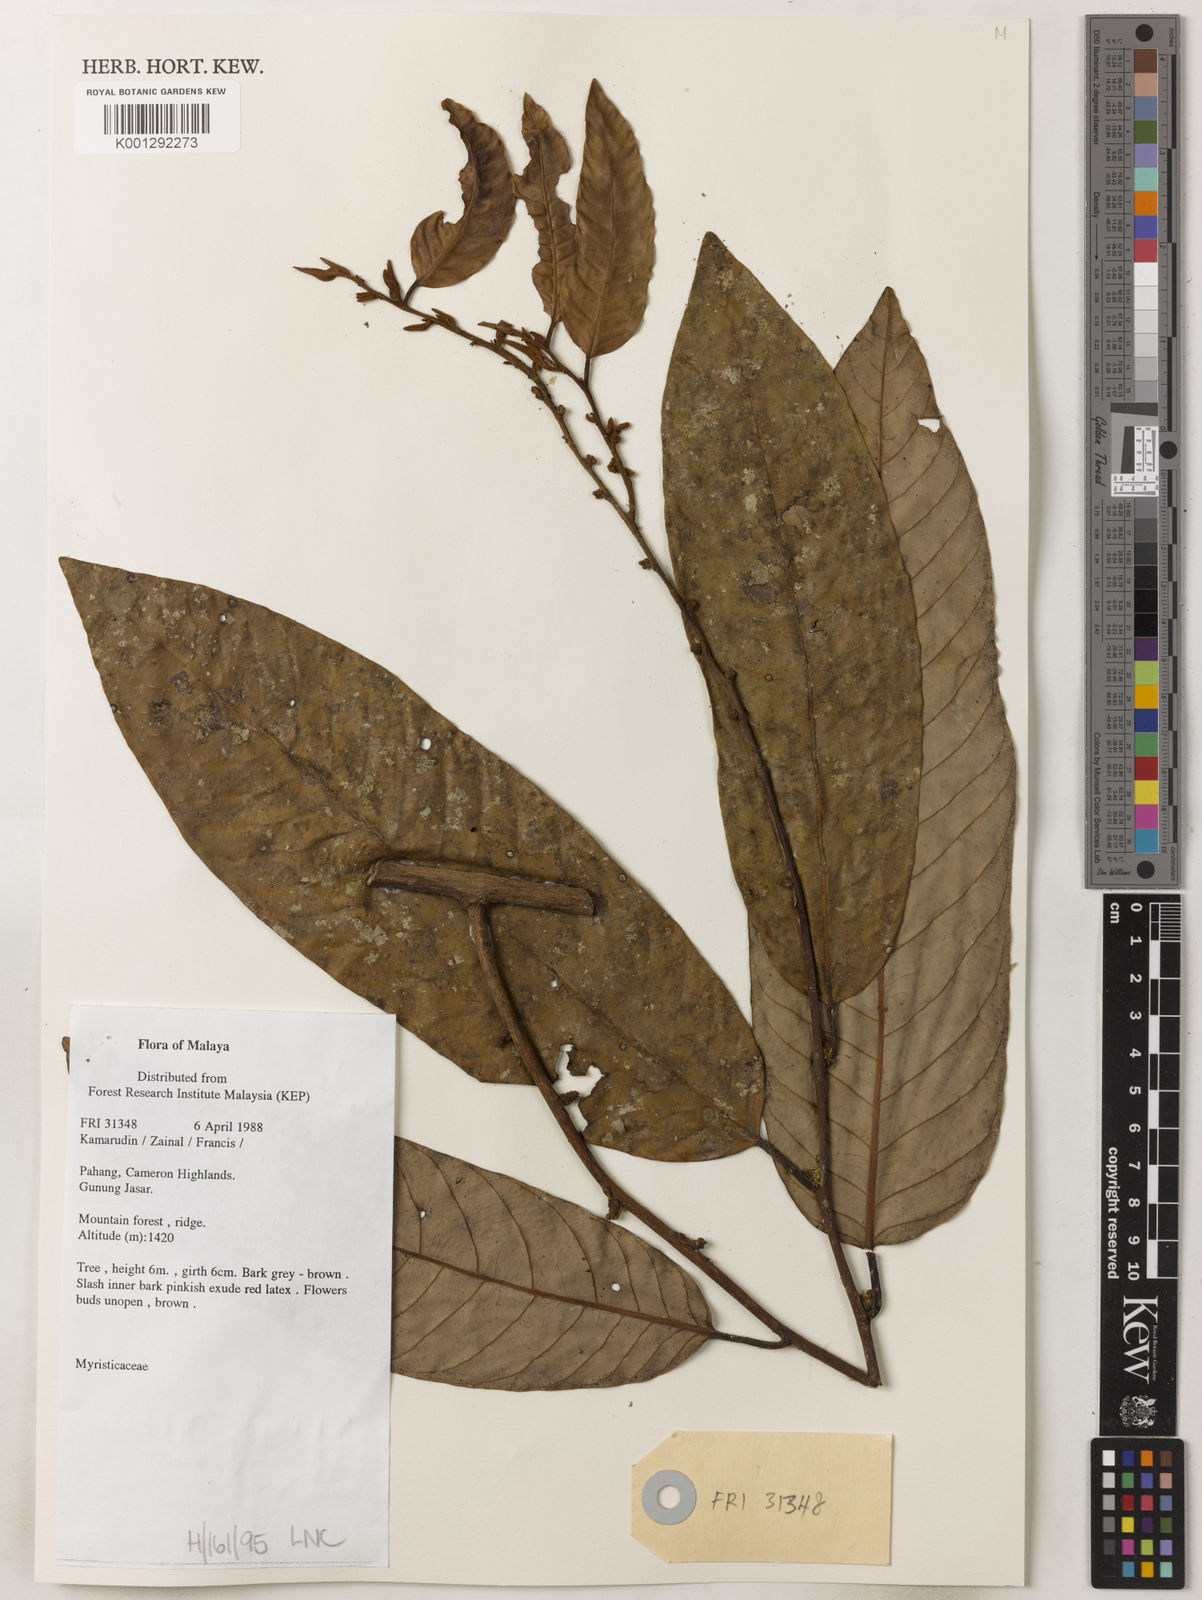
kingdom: Plantae
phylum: Tracheophyta
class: Magnoliopsida
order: Magnoliales
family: Myristicaceae
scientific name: Myristicaceae
